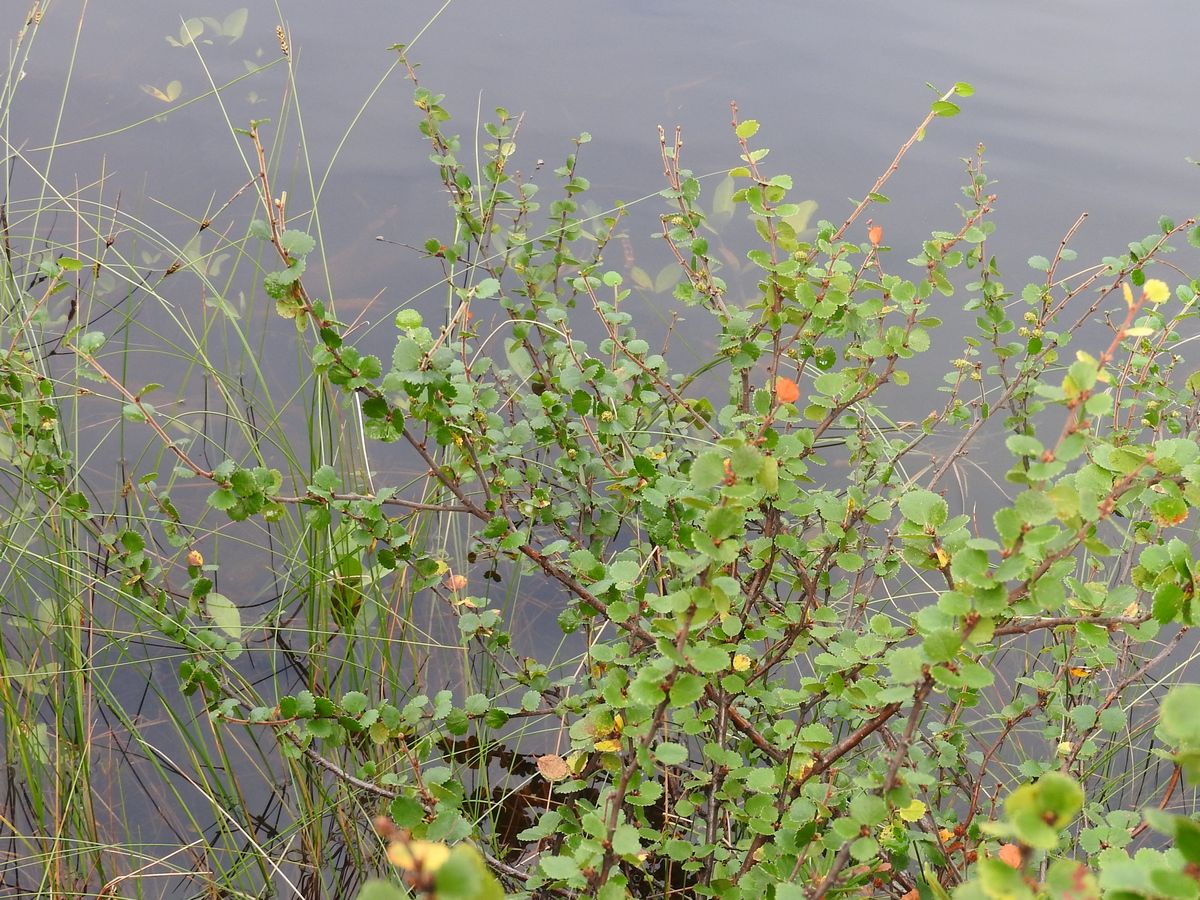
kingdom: Plantae
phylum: Tracheophyta
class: Magnoliopsida
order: Fagales
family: Betulaceae
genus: Betula
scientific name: Betula nana
